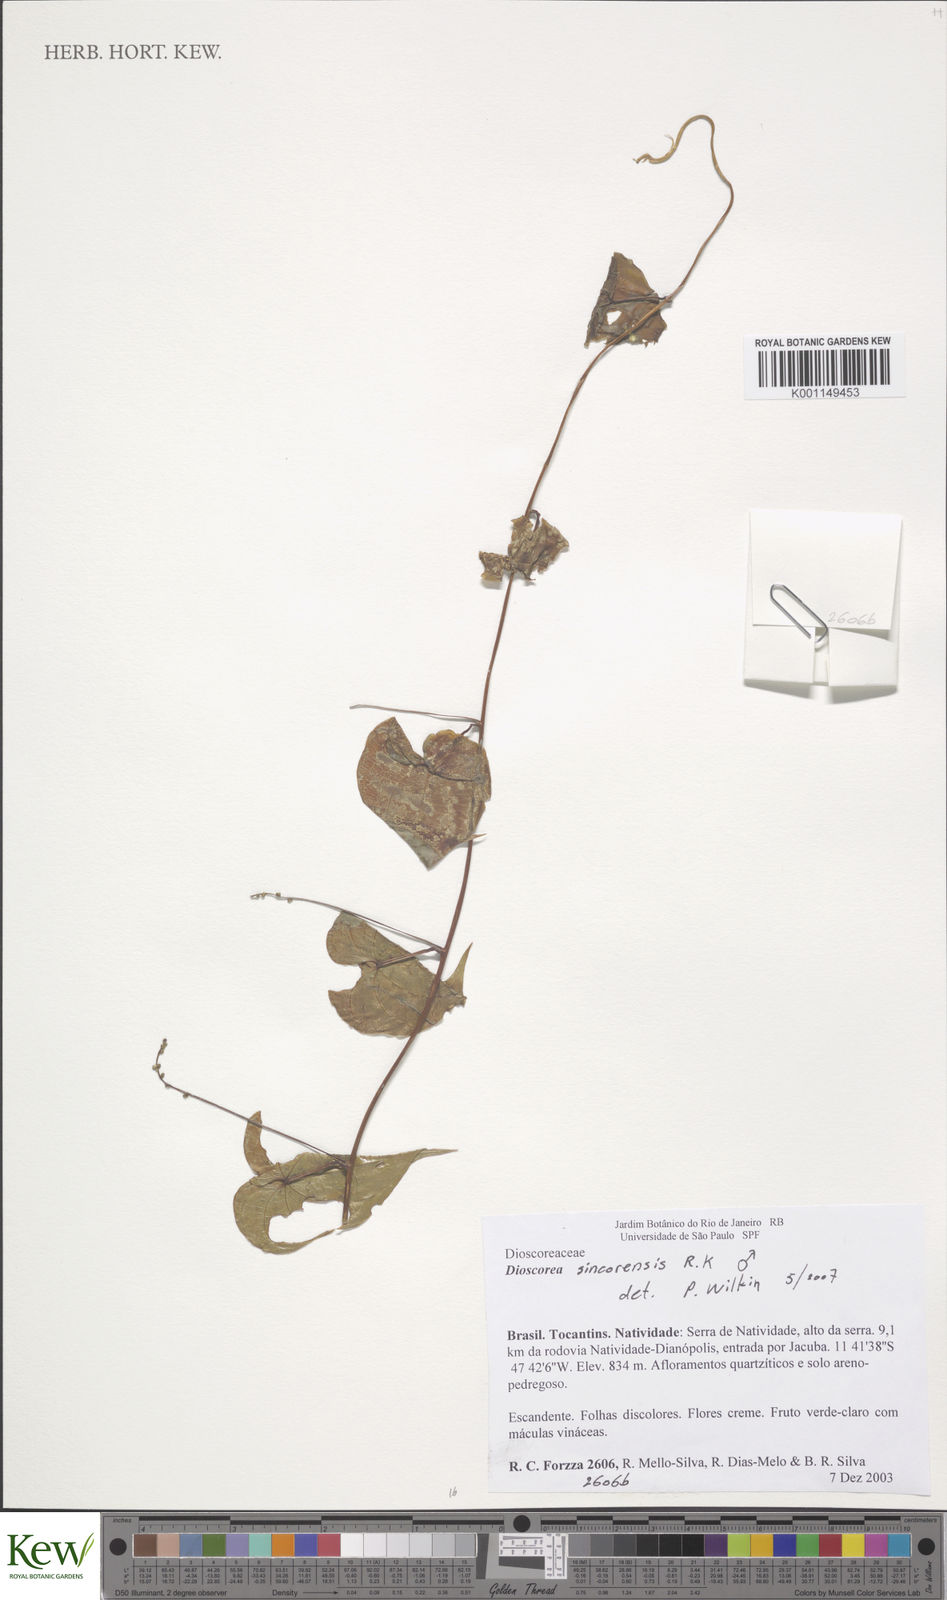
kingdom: Plantae
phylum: Tracheophyta
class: Liliopsida
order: Dioscoreales
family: Dioscoreaceae
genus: Dioscorea
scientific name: Dioscorea sincorensis
